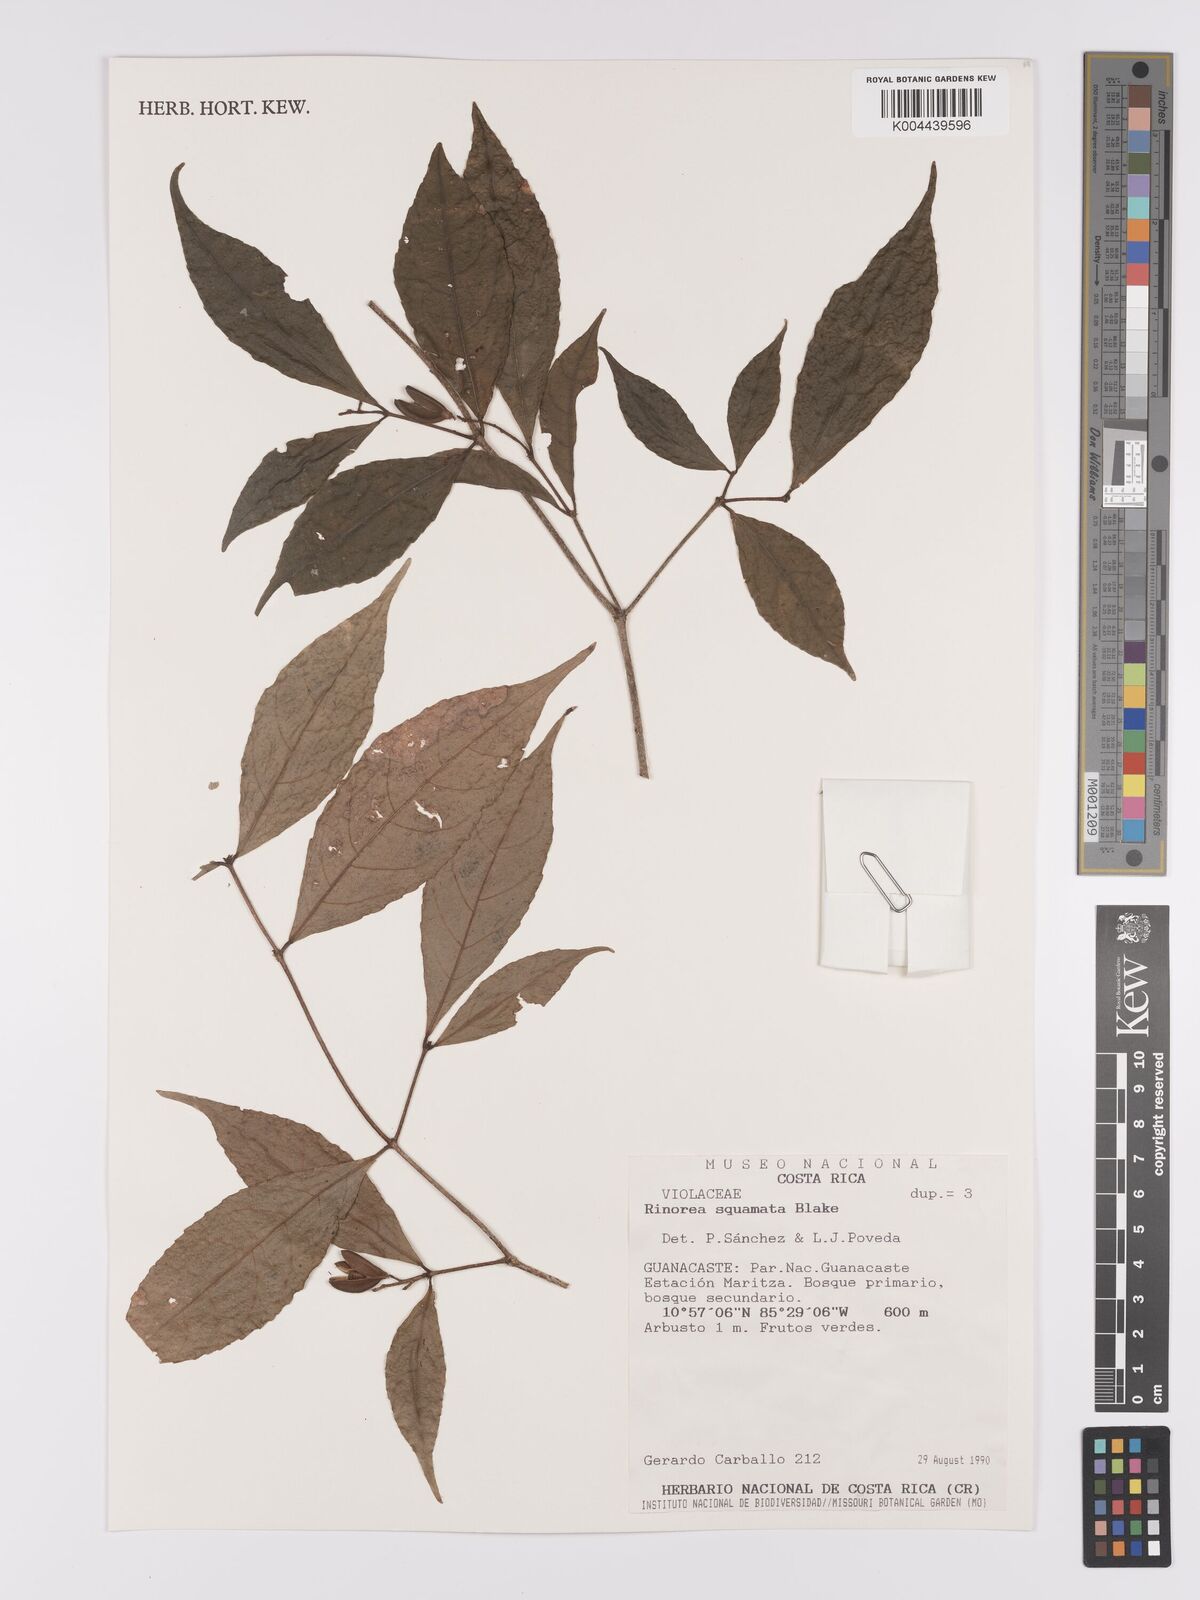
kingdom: Plantae
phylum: Tracheophyta
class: Magnoliopsida
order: Malpighiales
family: Violaceae
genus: Rinorea
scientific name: Rinorea squamata
